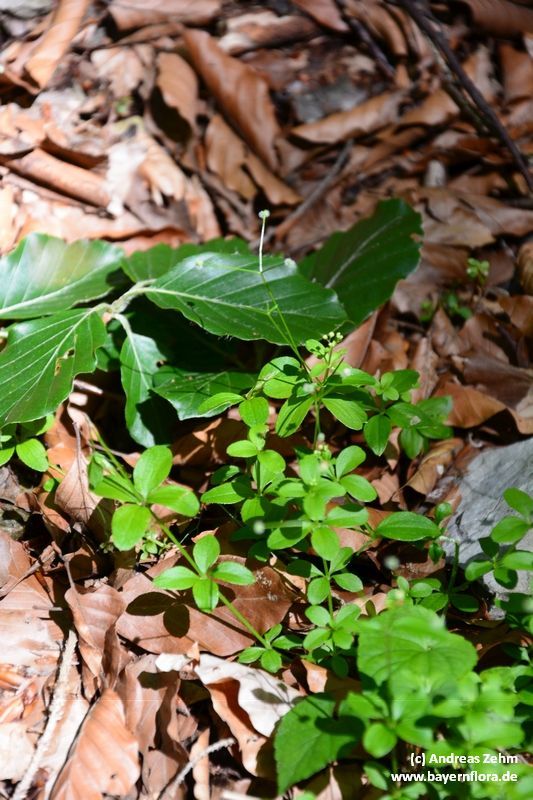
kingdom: Plantae
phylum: Tracheophyta
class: Magnoliopsida
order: Gentianales
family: Rubiaceae
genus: Galium
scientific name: Galium rotundifolium
